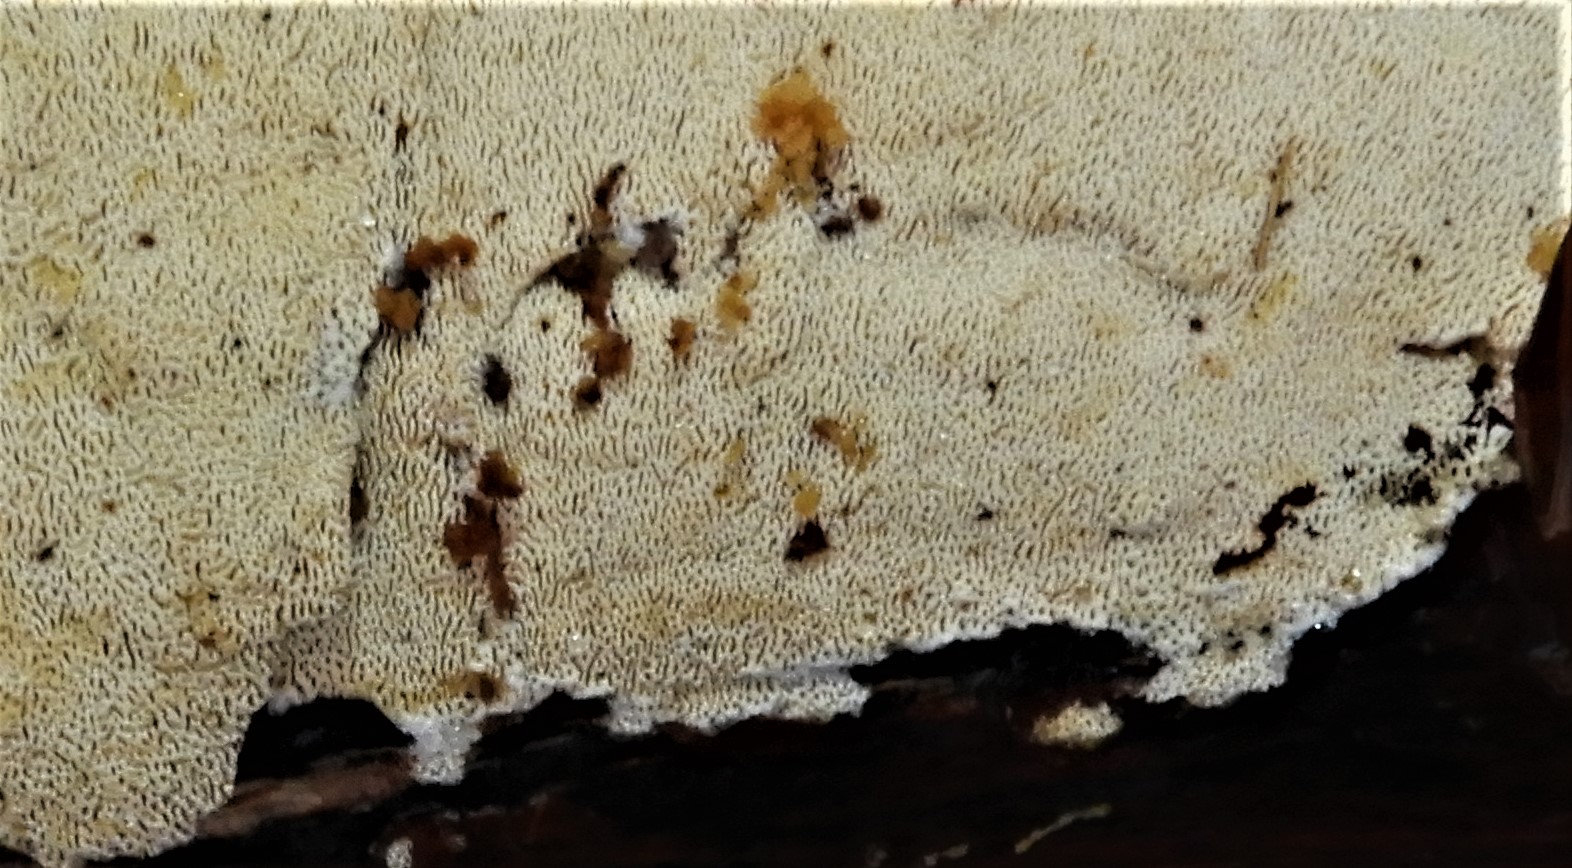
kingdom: Fungi
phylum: Basidiomycota
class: Agaricomycetes
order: Hymenochaetales
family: Schizoporaceae
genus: Xylodon
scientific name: Xylodon subtropicus
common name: labyrint-tandsvamp
